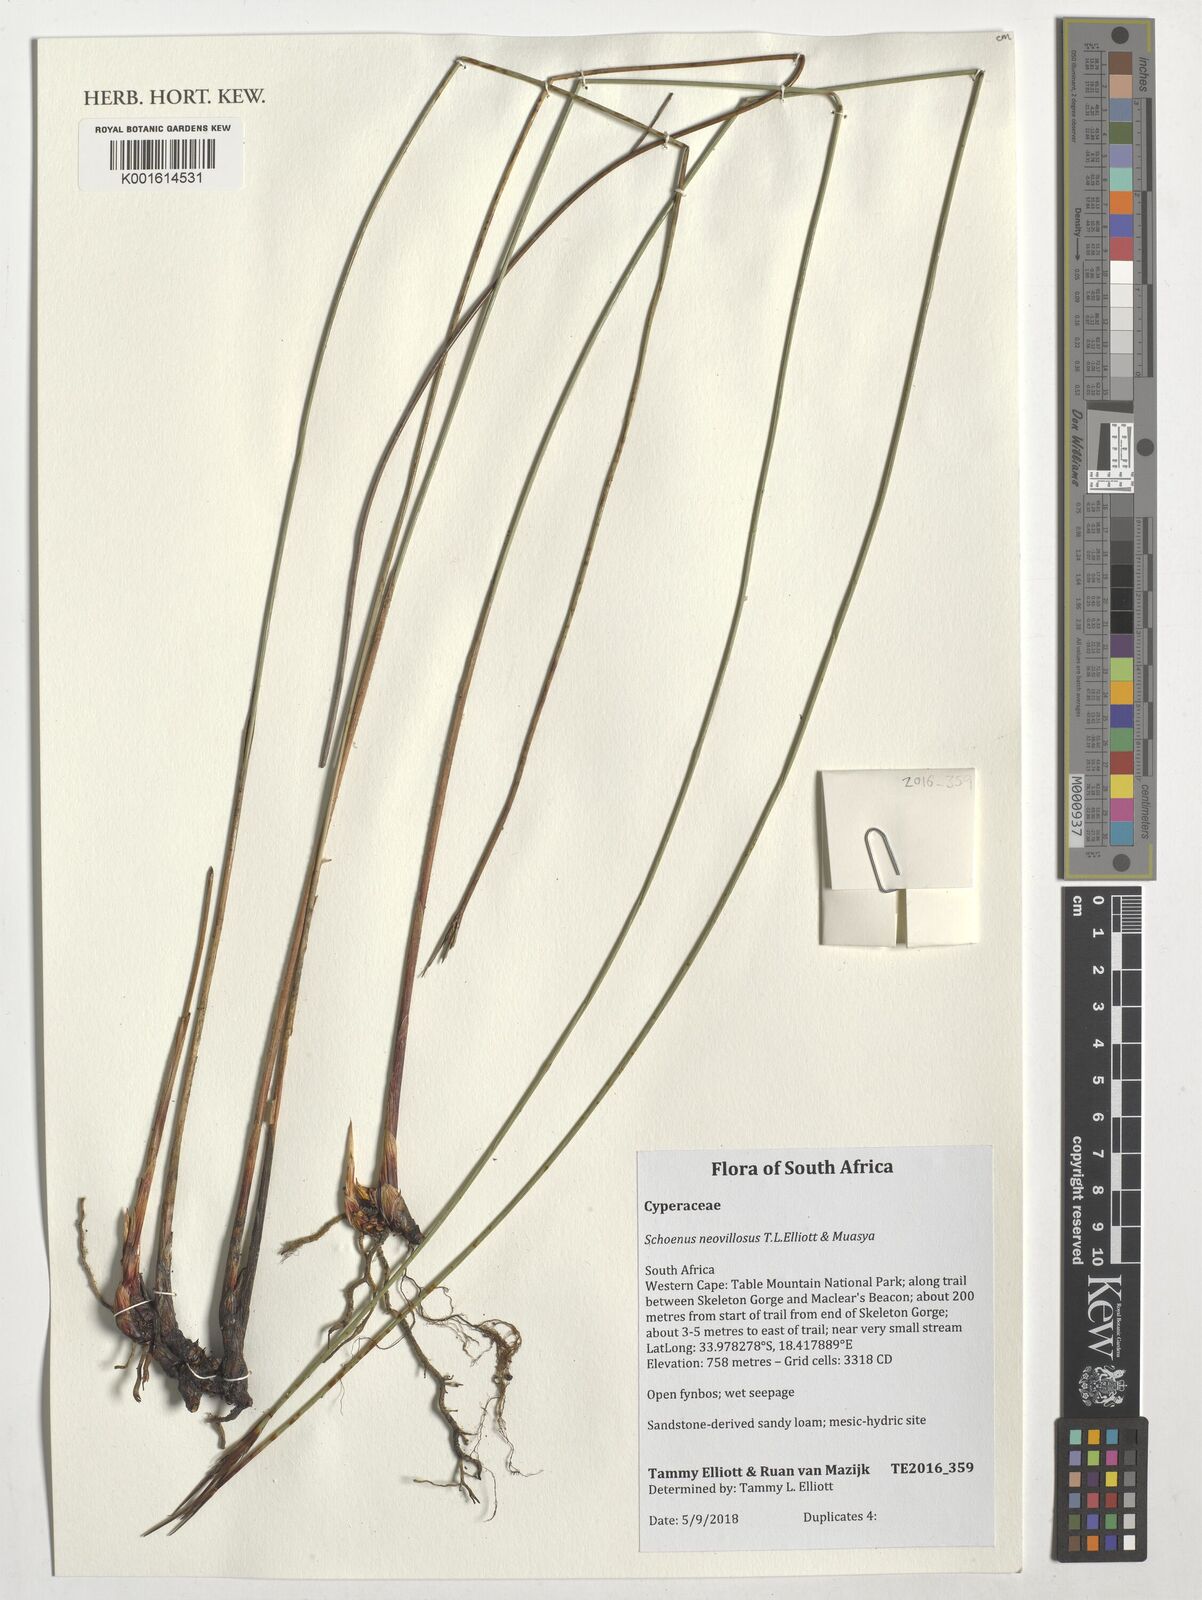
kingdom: Plantae
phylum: Tracheophyta
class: Liliopsida
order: Poales
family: Cyperaceae
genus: Schoenus
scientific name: Schoenus neovillosus
